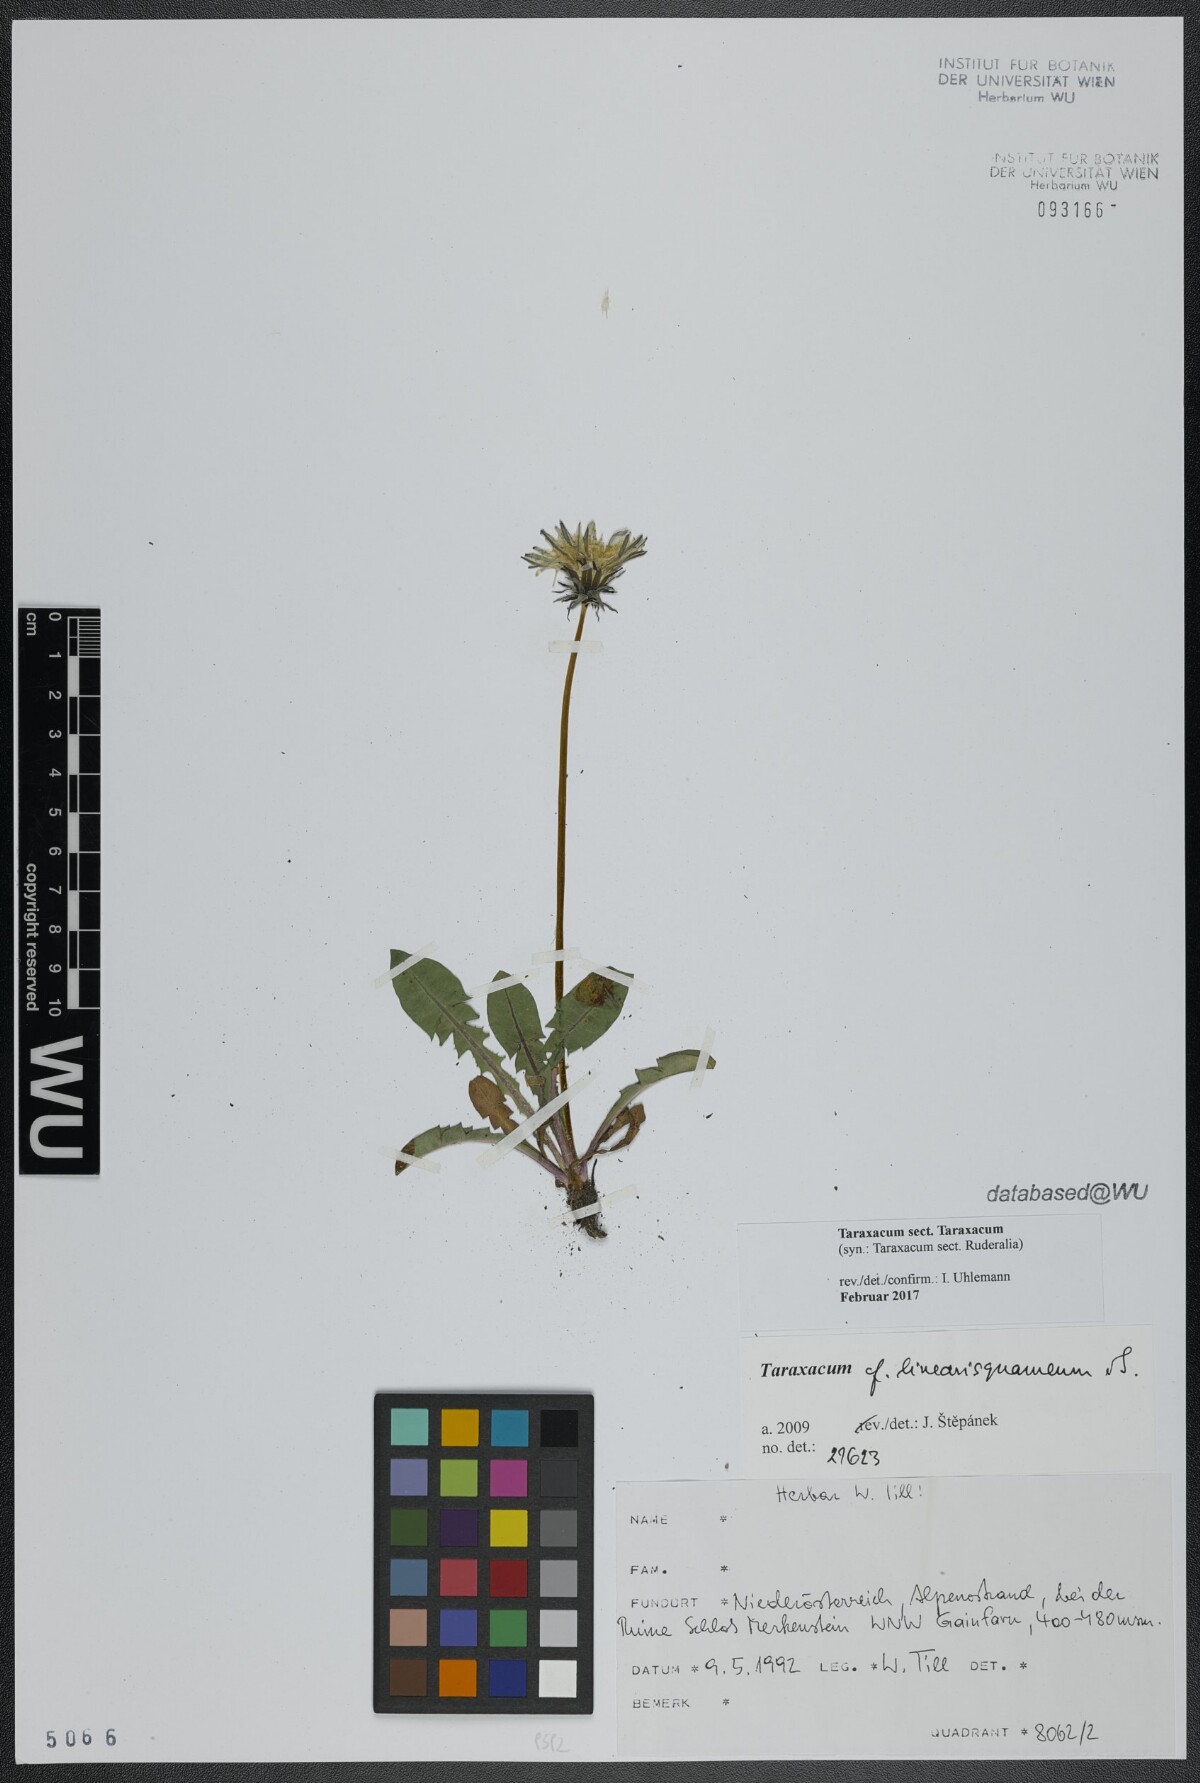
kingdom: Plantae
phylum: Tracheophyta
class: Magnoliopsida
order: Asterales
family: Asteraceae
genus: Taraxacum
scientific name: Taraxacum
